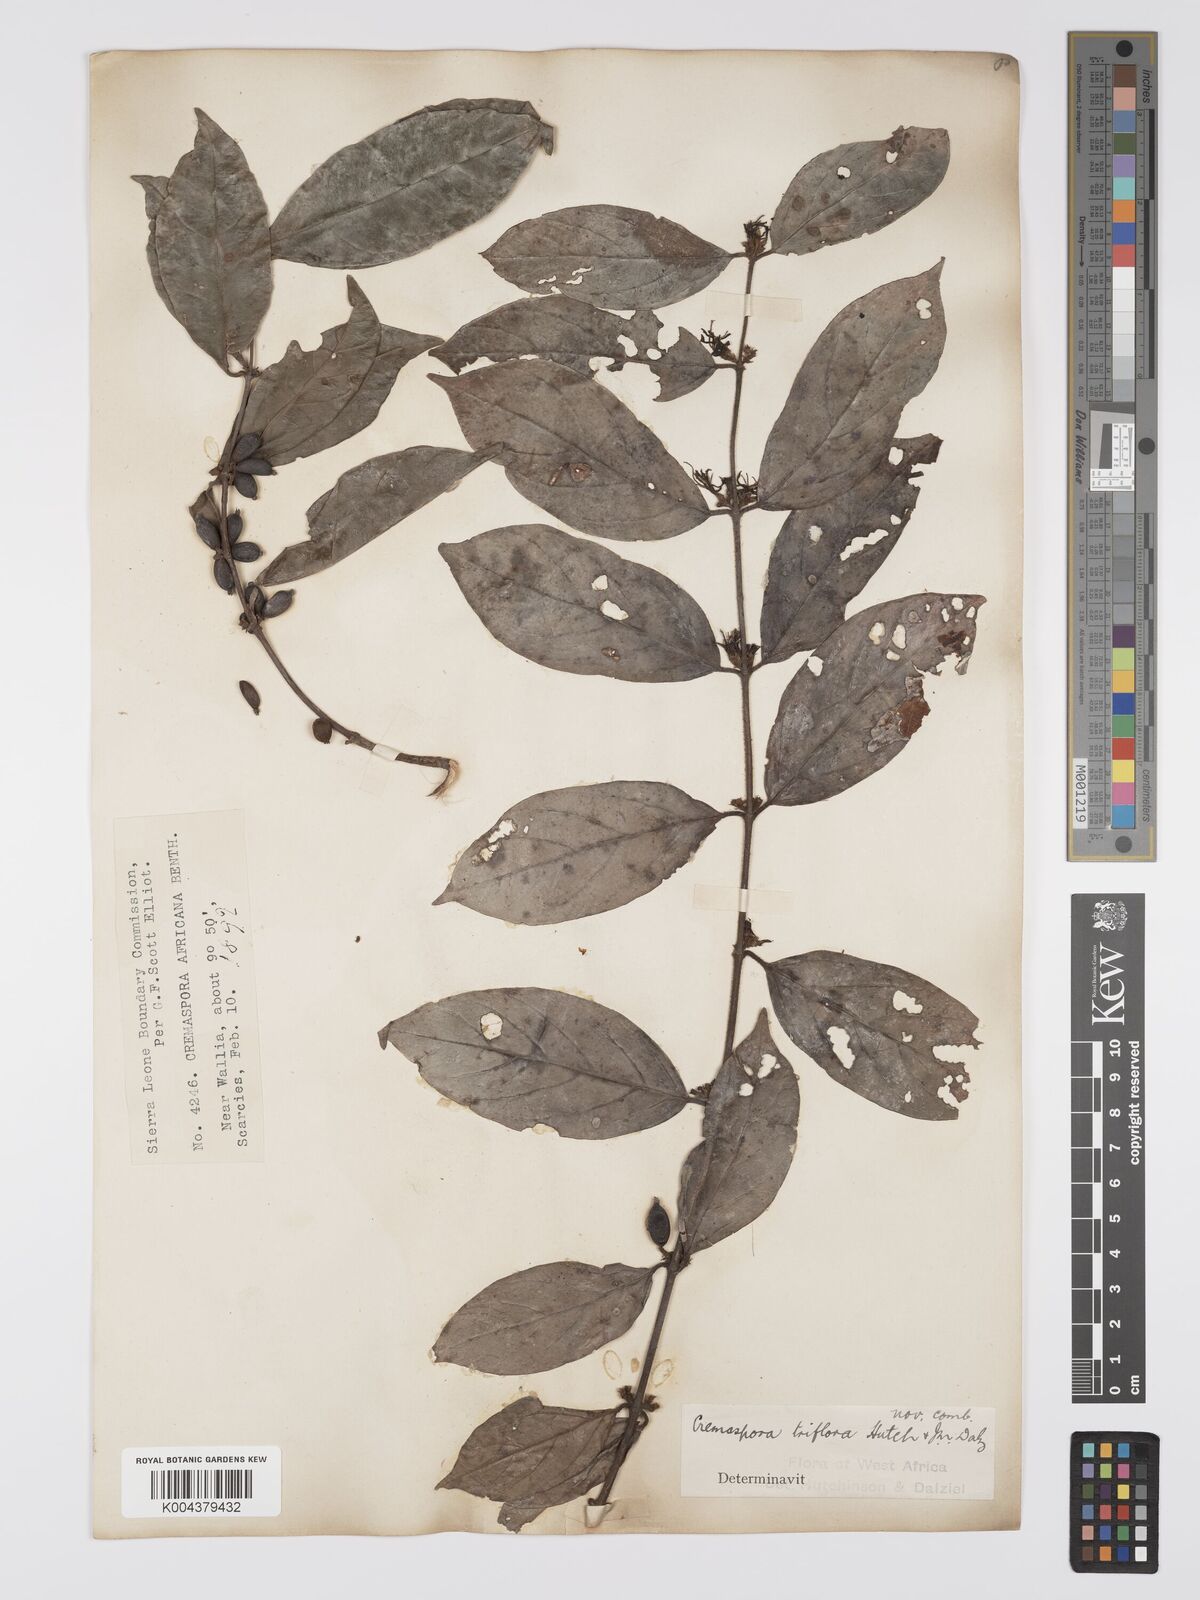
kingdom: Plantae
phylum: Tracheophyta
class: Magnoliopsida
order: Gentianales
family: Rubiaceae
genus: Cremaspora
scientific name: Cremaspora triflora
